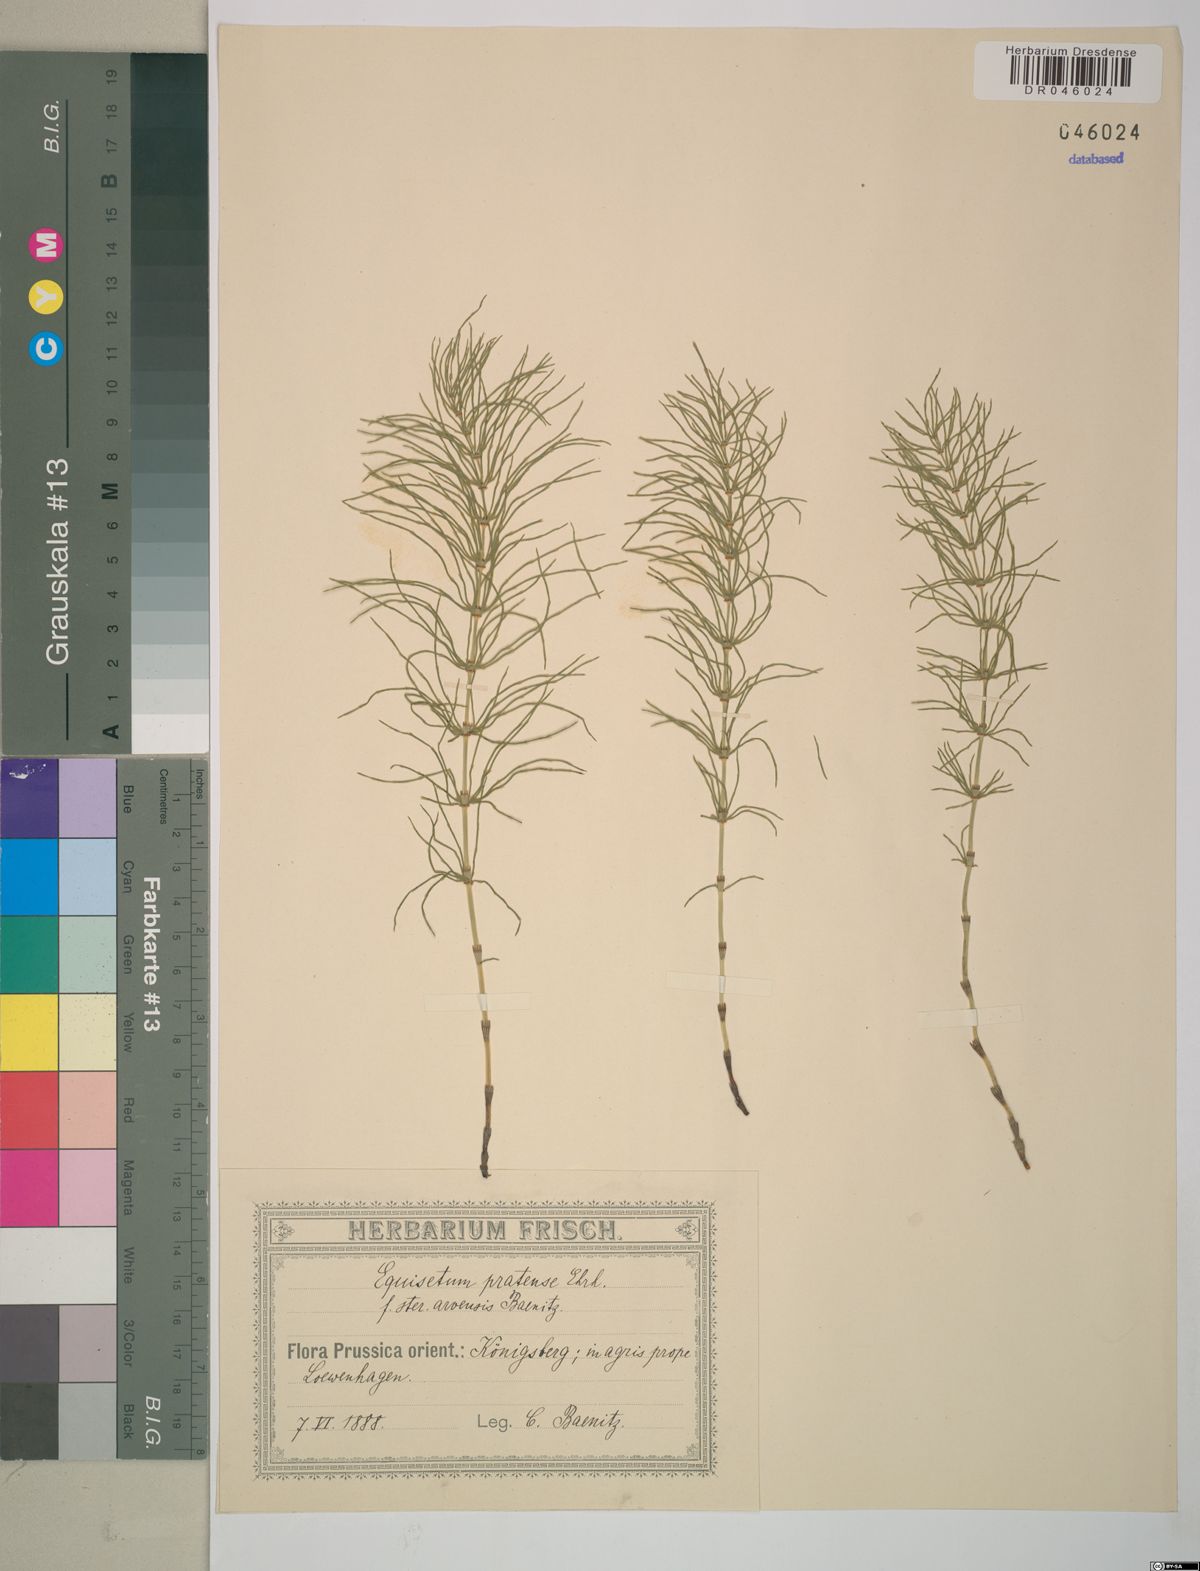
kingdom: Plantae
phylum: Tracheophyta
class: Polypodiopsida
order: Equisetales
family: Equisetaceae
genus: Equisetum
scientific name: Equisetum pratense
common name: Meadow horsetail
